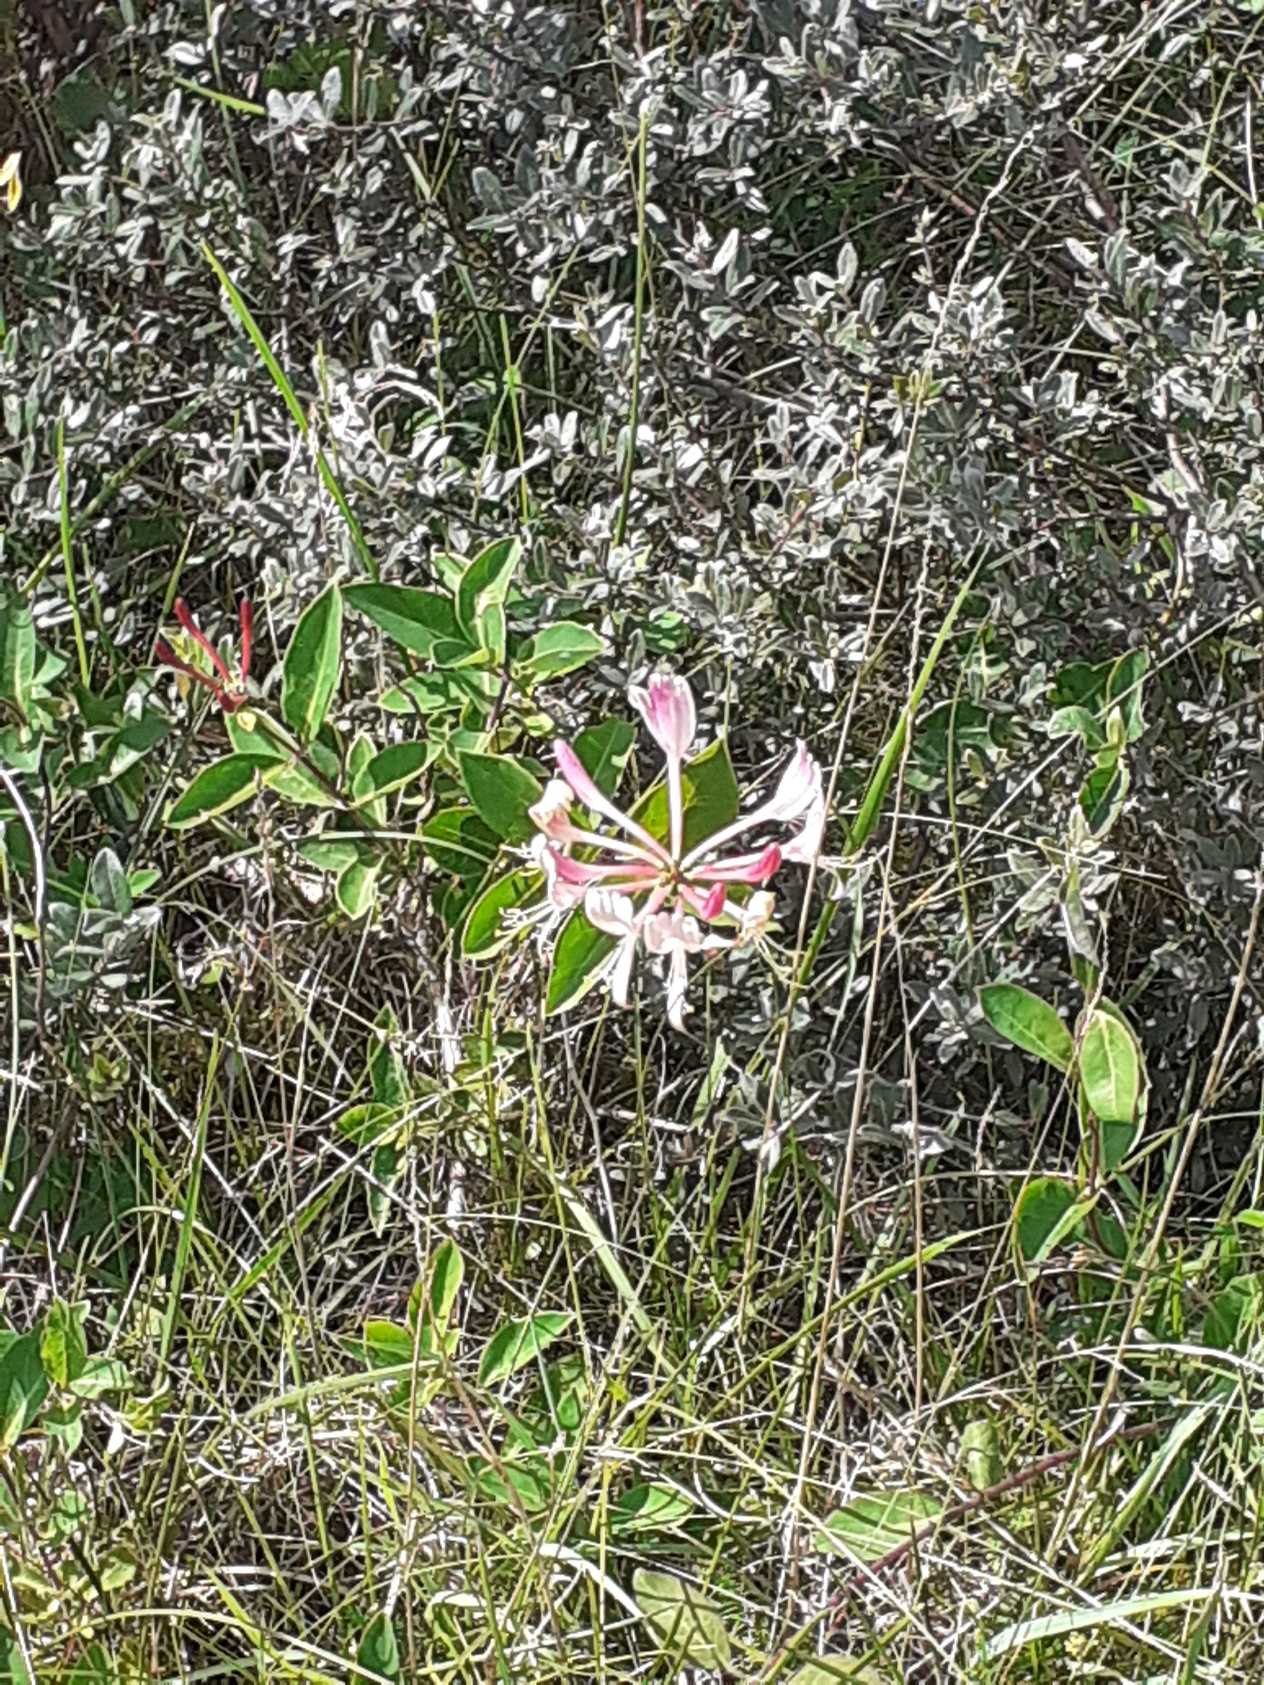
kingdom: Plantae
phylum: Tracheophyta
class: Magnoliopsida
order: Dipsacales
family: Caprifoliaceae
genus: Lonicera
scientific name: Lonicera periclymenum
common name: Almindelig gedeblad
